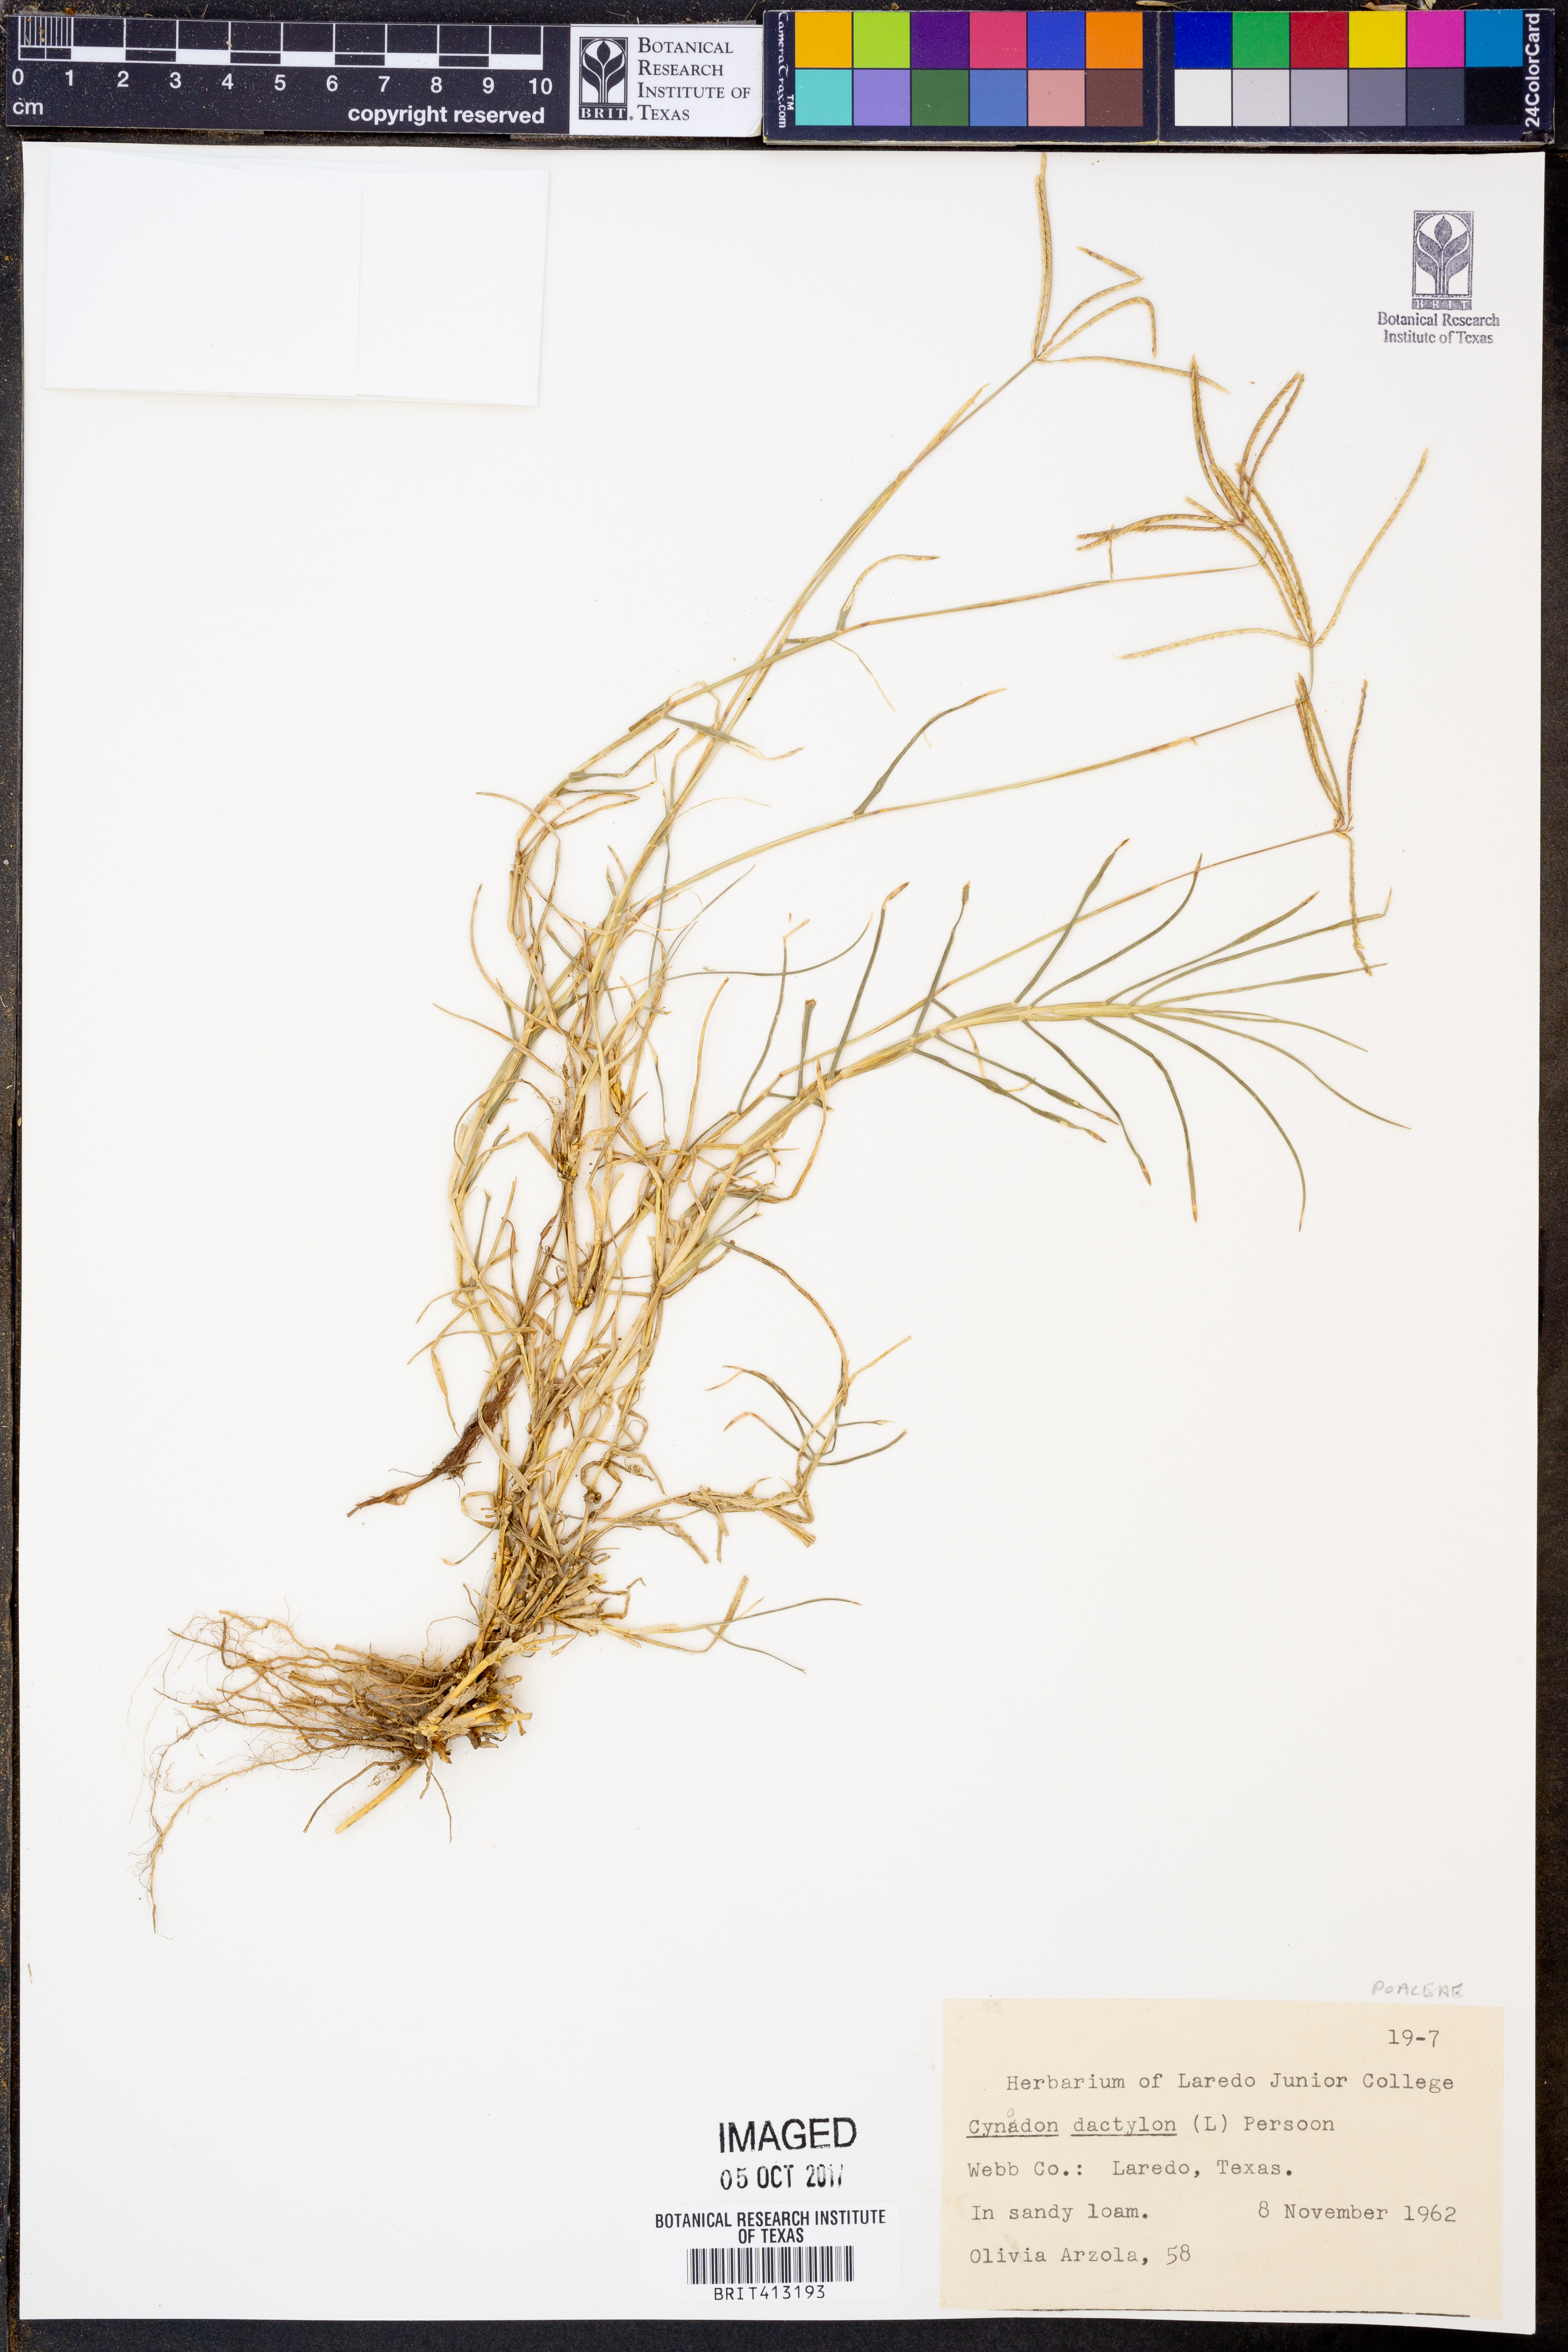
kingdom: Plantae
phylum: Tracheophyta
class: Liliopsida
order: Poales
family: Poaceae
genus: Cynodon
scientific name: Cynodon dactylon
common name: Bermuda grass
